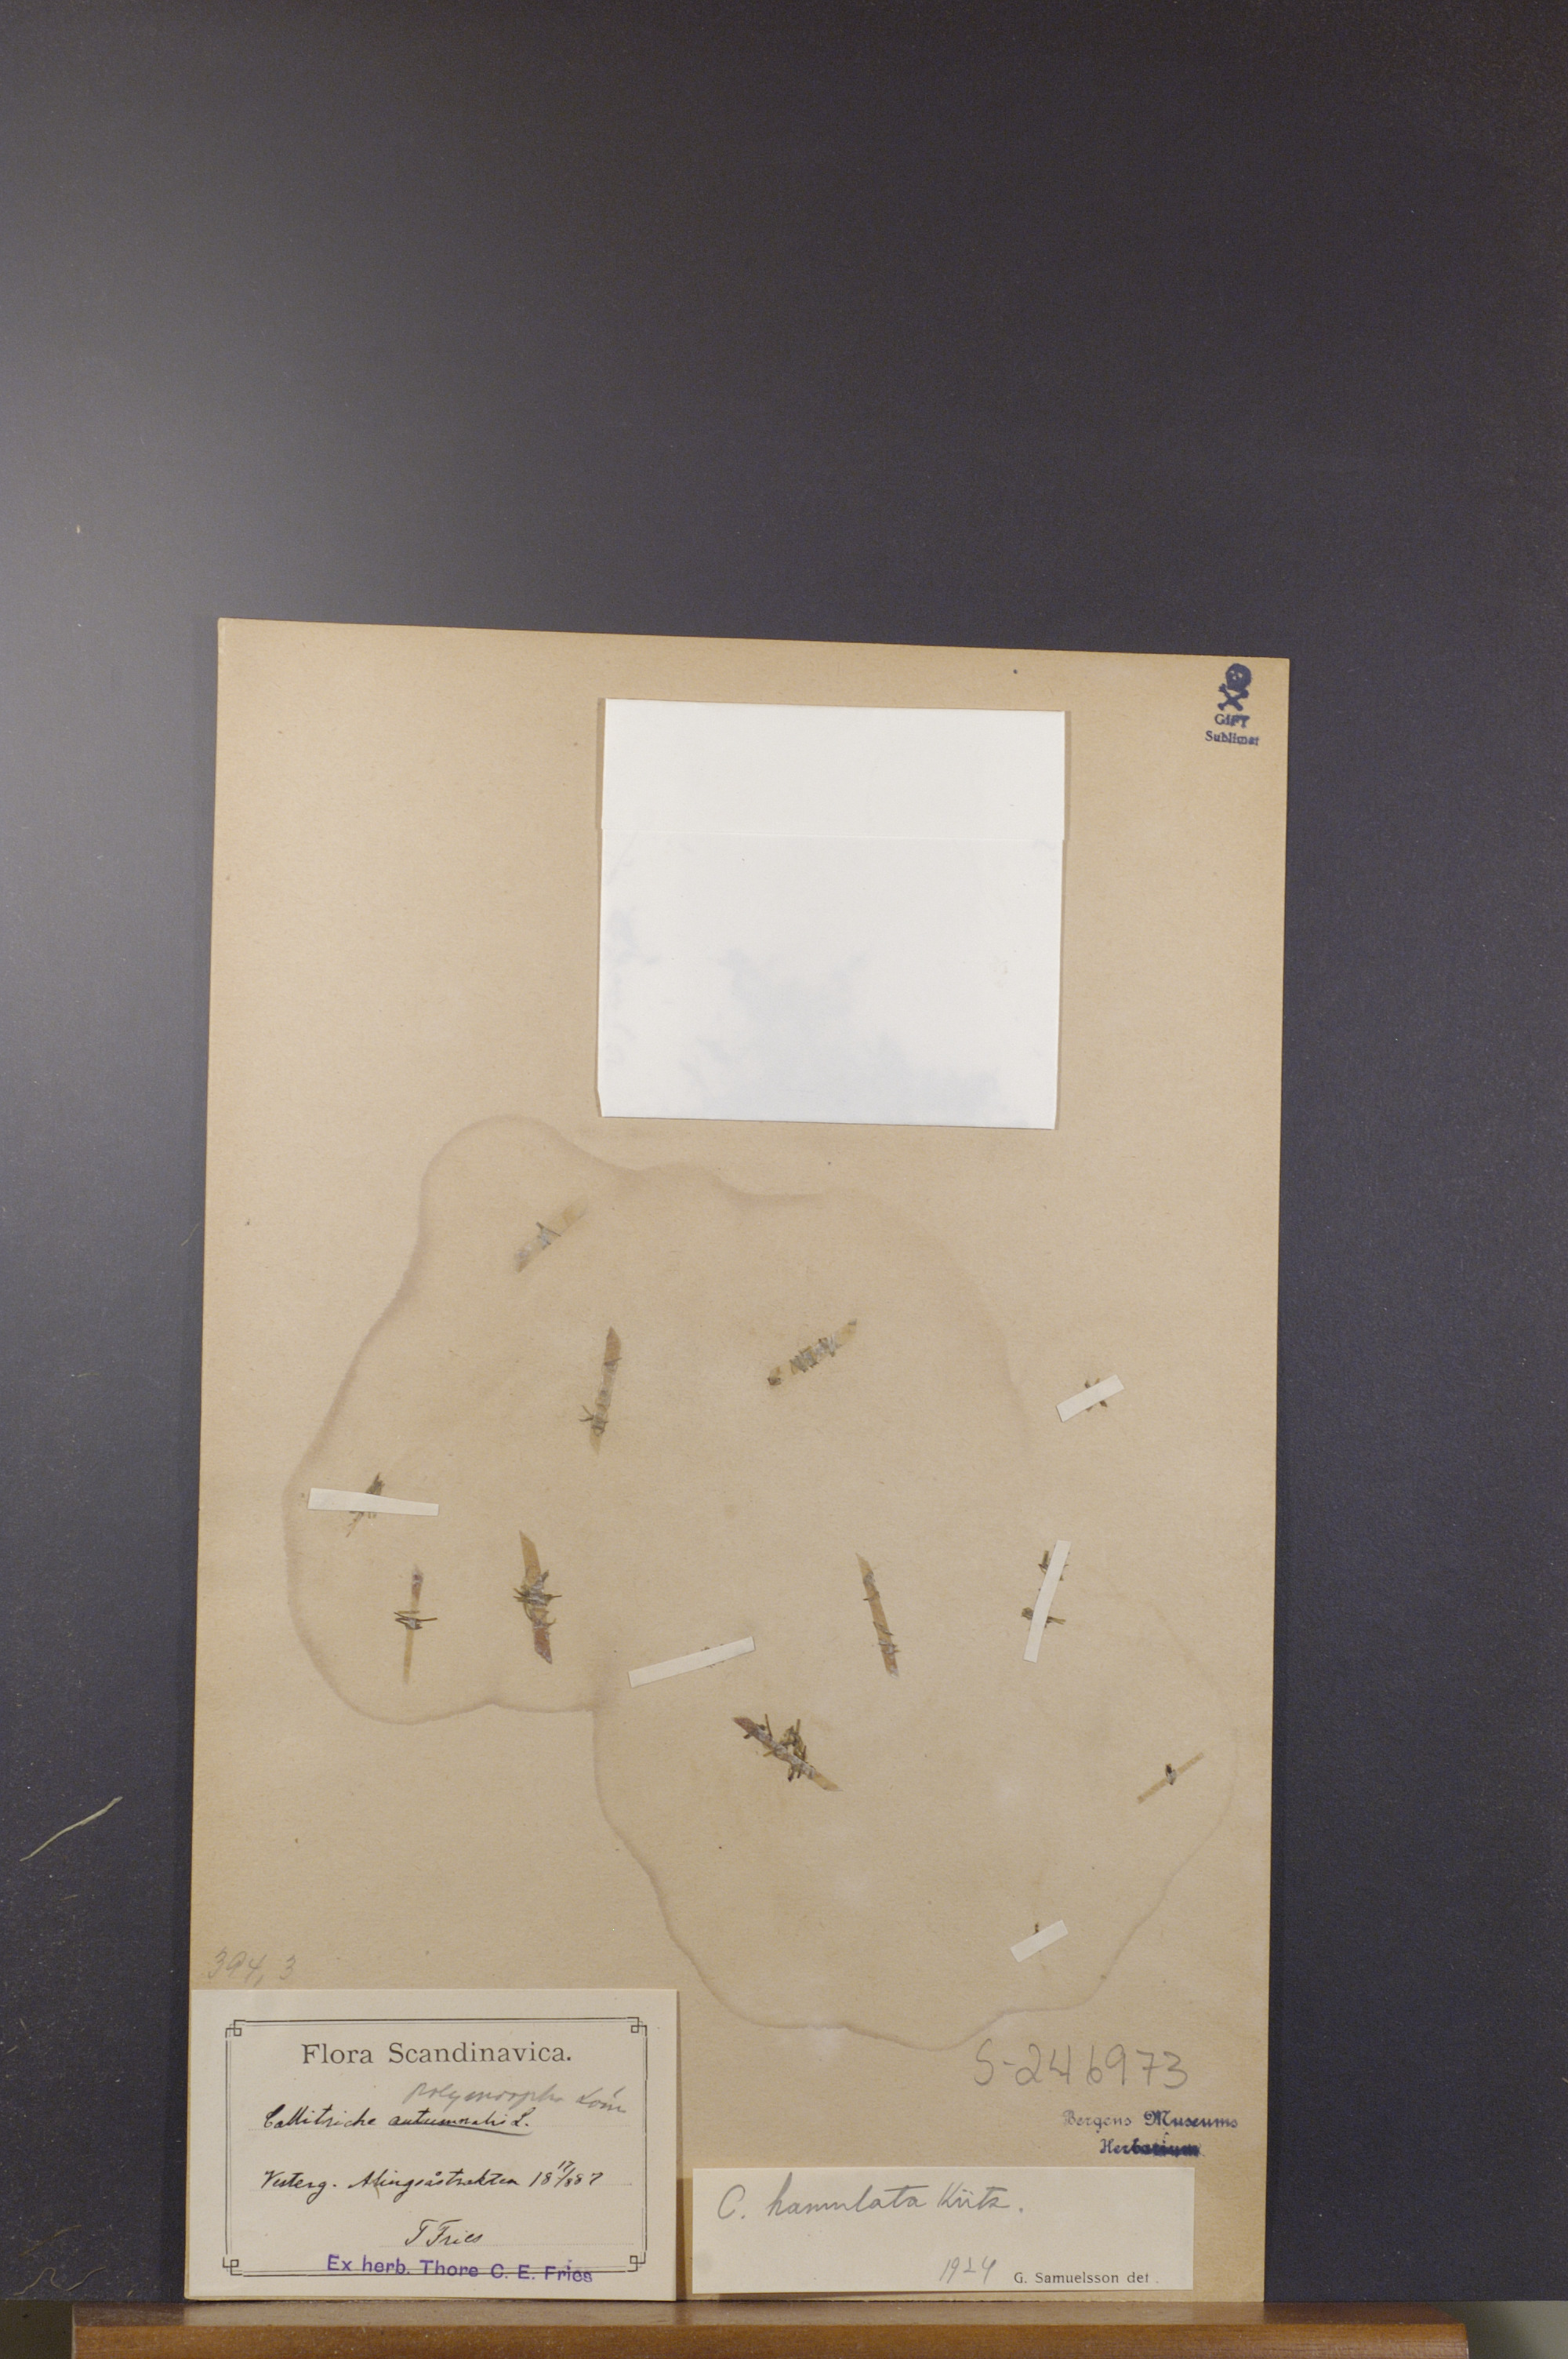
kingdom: Plantae
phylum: Tracheophyta
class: Magnoliopsida
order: Lamiales
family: Plantaginaceae
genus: Callitriche
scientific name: Callitriche hamulata
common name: Intermediate water-starwort
